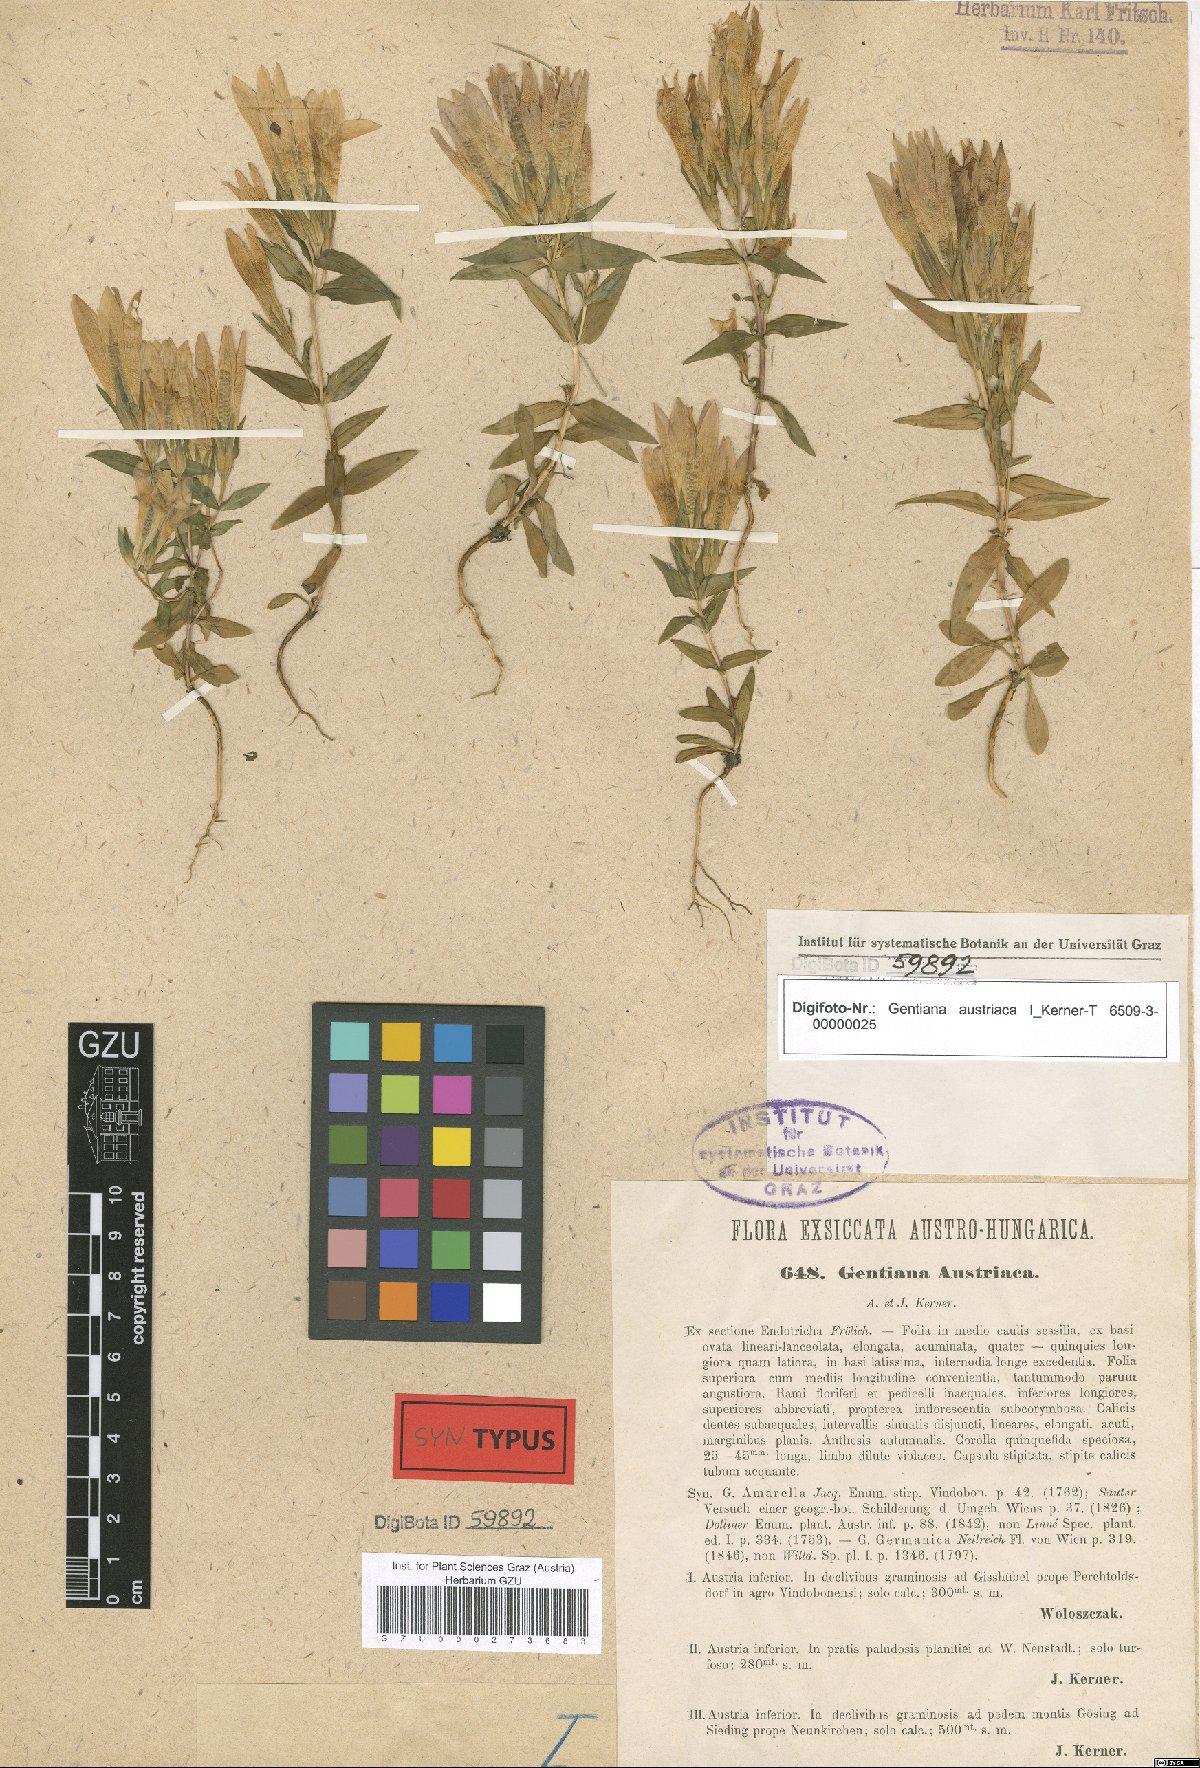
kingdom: Plantae
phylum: Tracheophyta
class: Magnoliopsida
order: Gentianales
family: Gentianaceae
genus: Gentianella
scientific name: Gentianella austriaca
